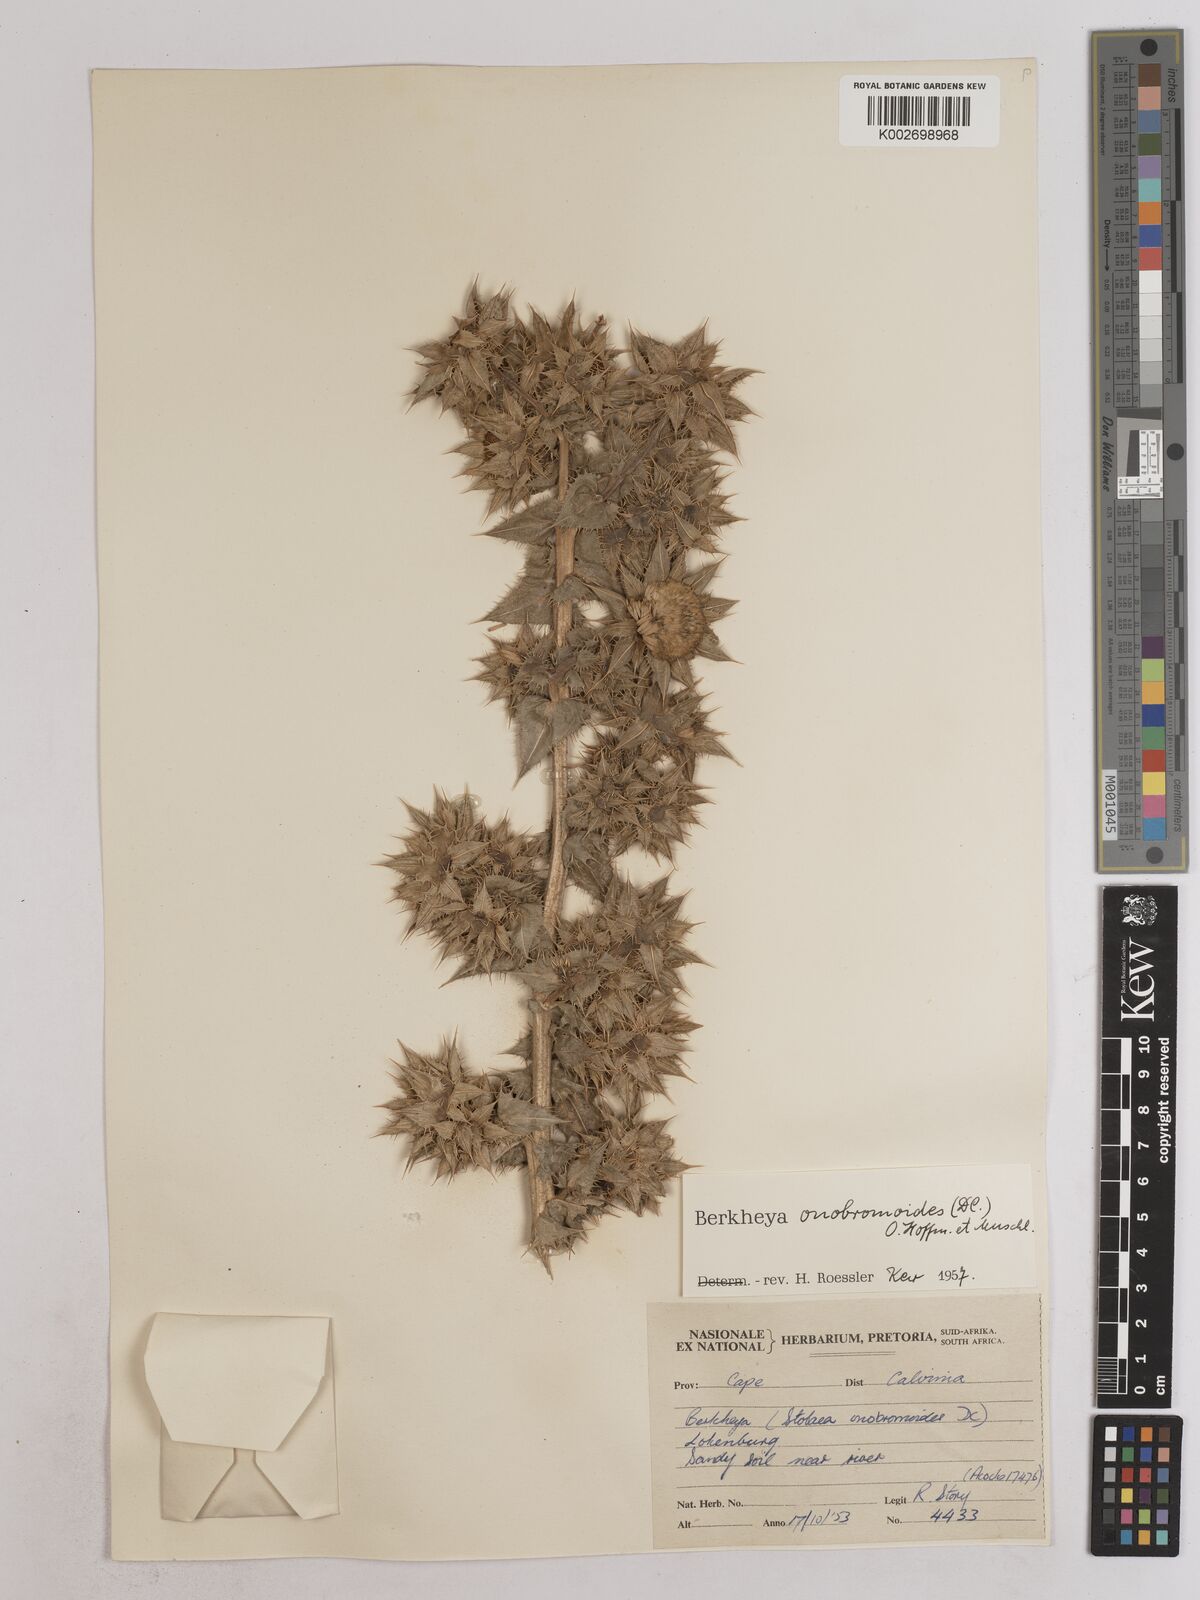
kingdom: Plantae
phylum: Tracheophyta
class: Magnoliopsida
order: Asterales
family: Asteraceae
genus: Berkheya
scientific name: Berkheya onobromoides
